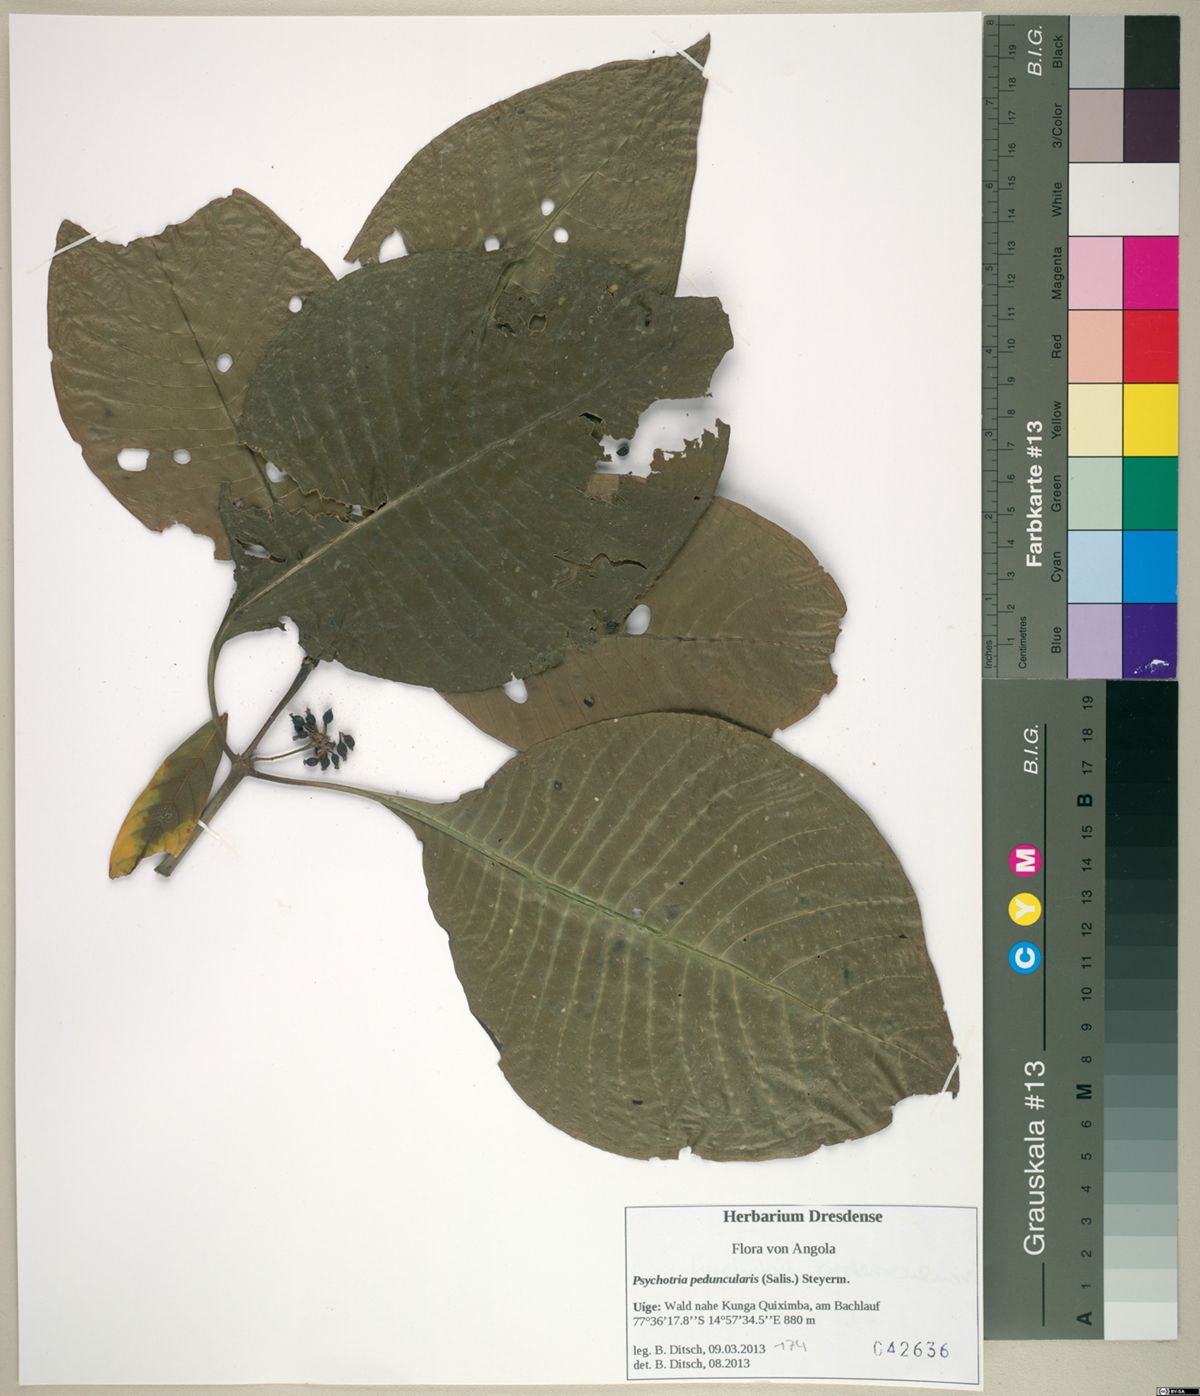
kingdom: Plantae
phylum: Tracheophyta
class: Magnoliopsida
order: Gentianales
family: Rubiaceae
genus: Psychotria
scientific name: Psychotria peduncularis
